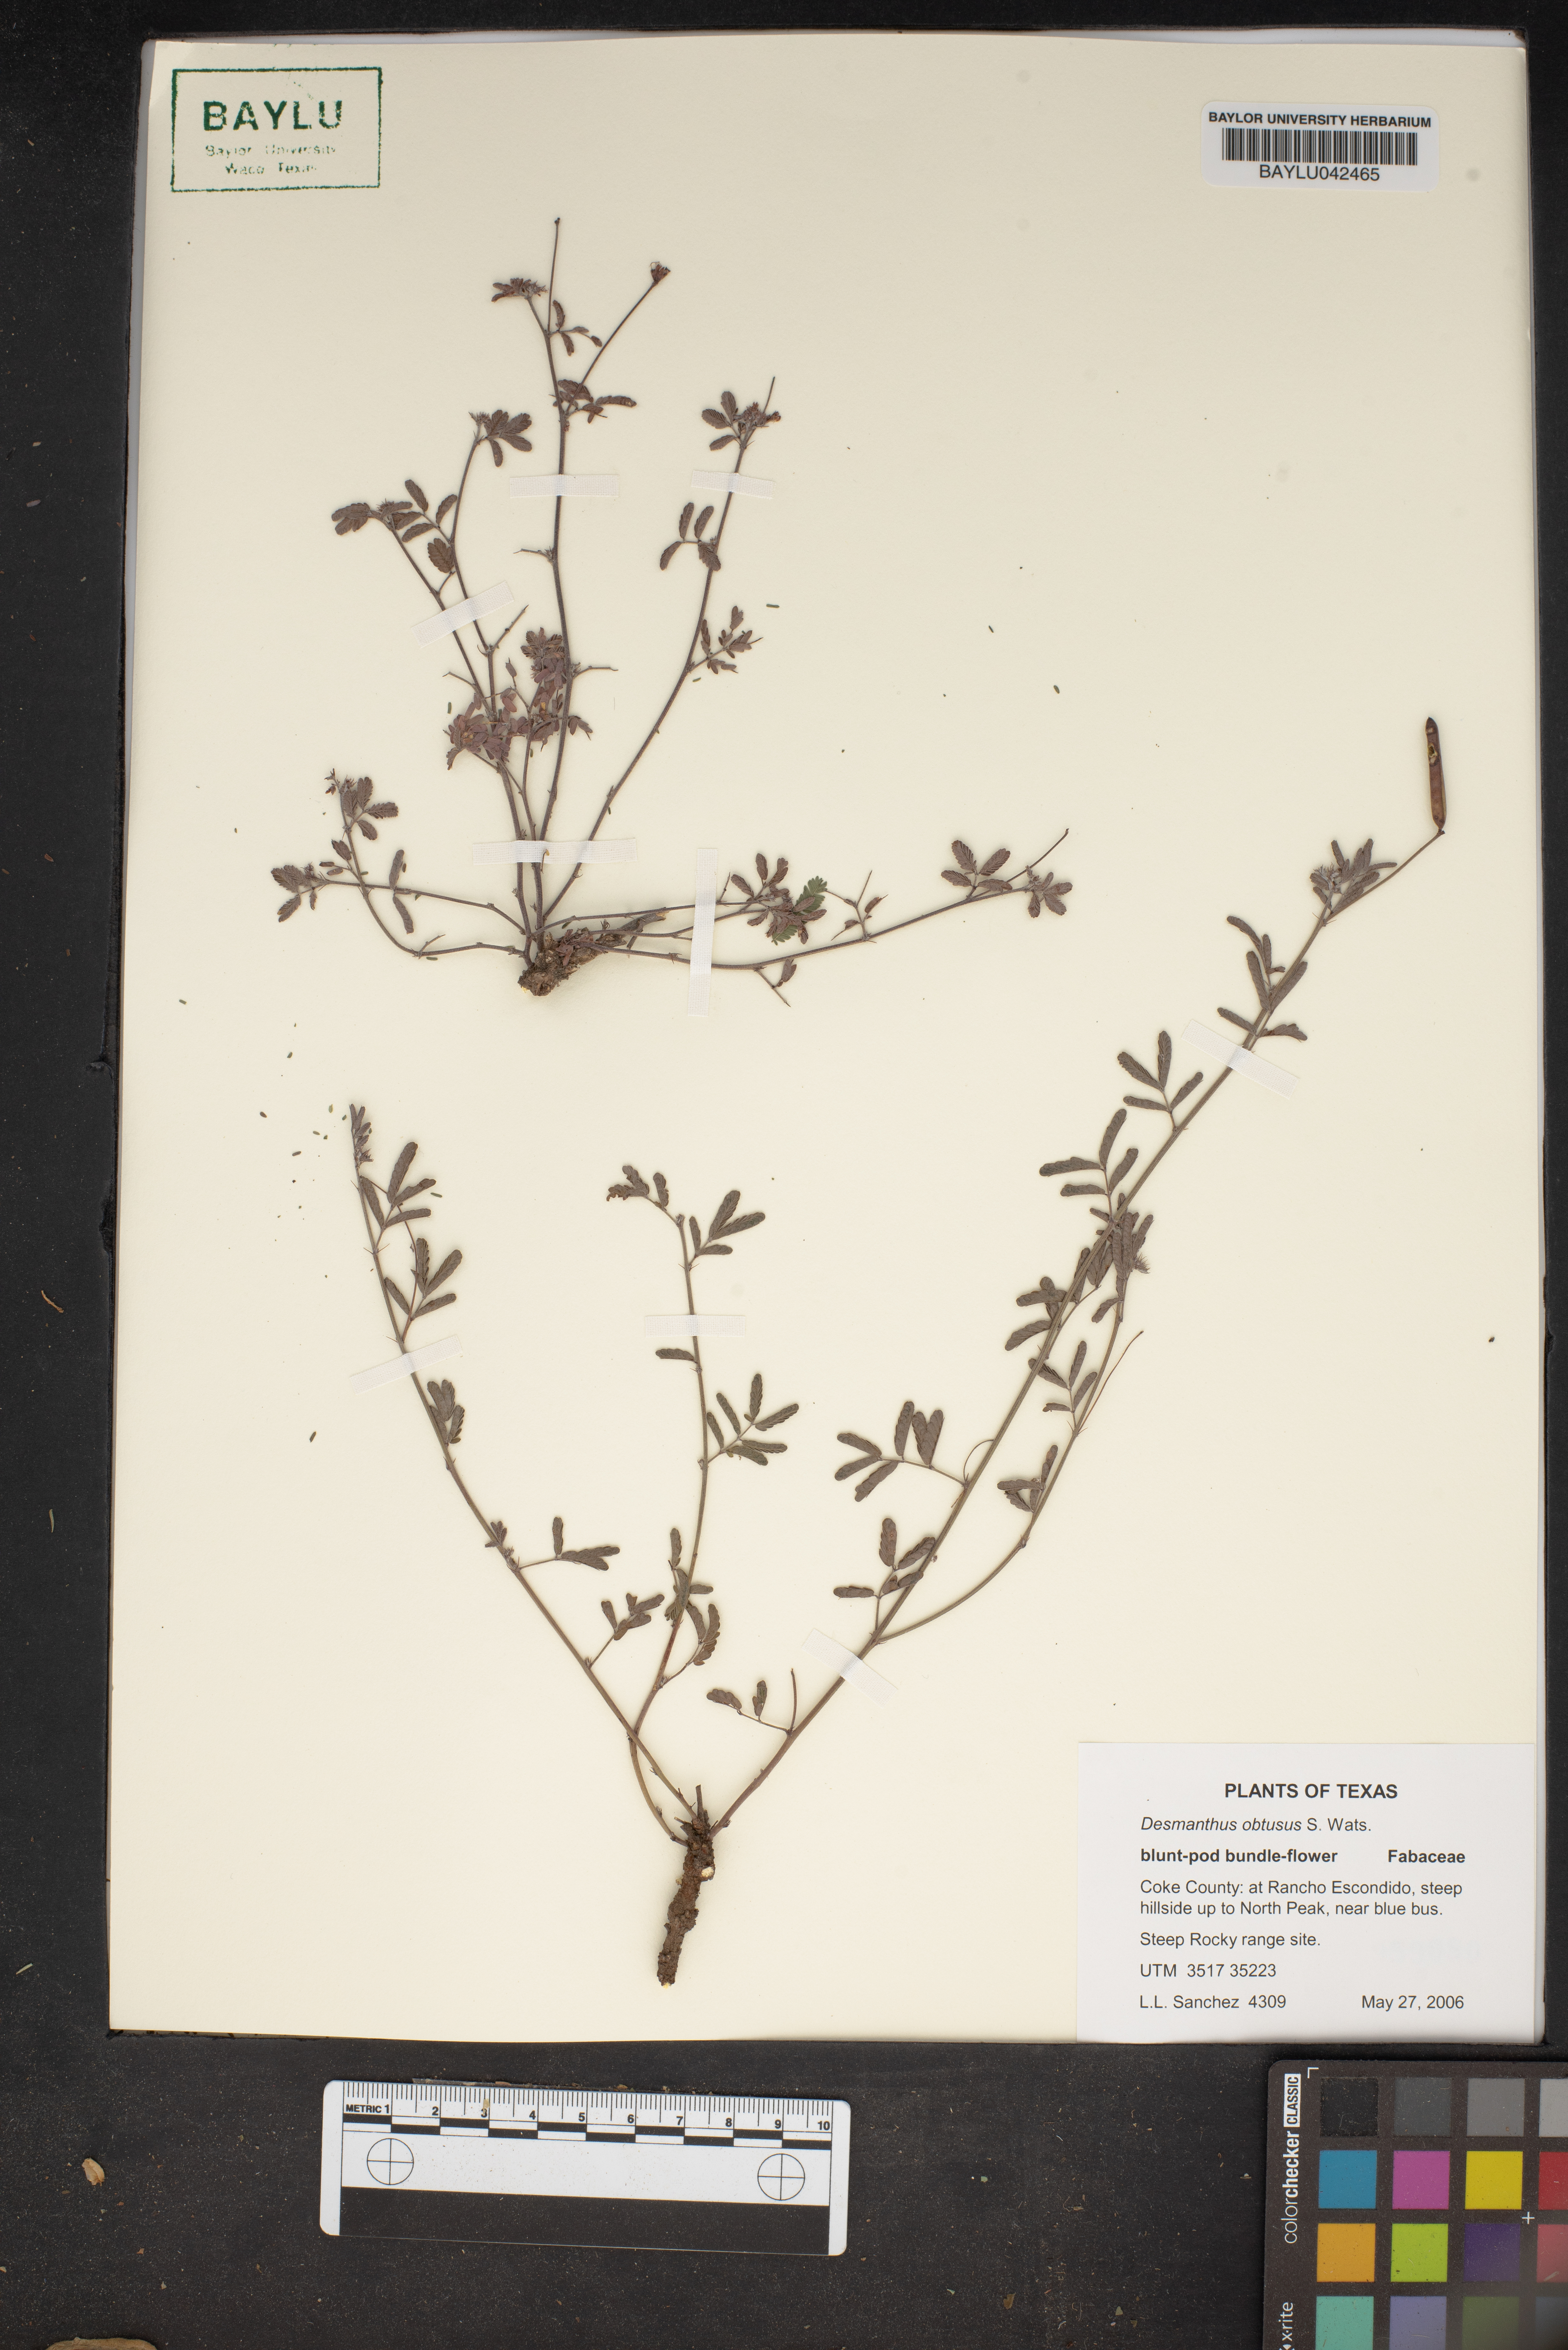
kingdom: Plantae
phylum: Tracheophyta
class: Magnoliopsida
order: Fabales
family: Fabaceae
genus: Desmanthus
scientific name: Desmanthus obtusus
